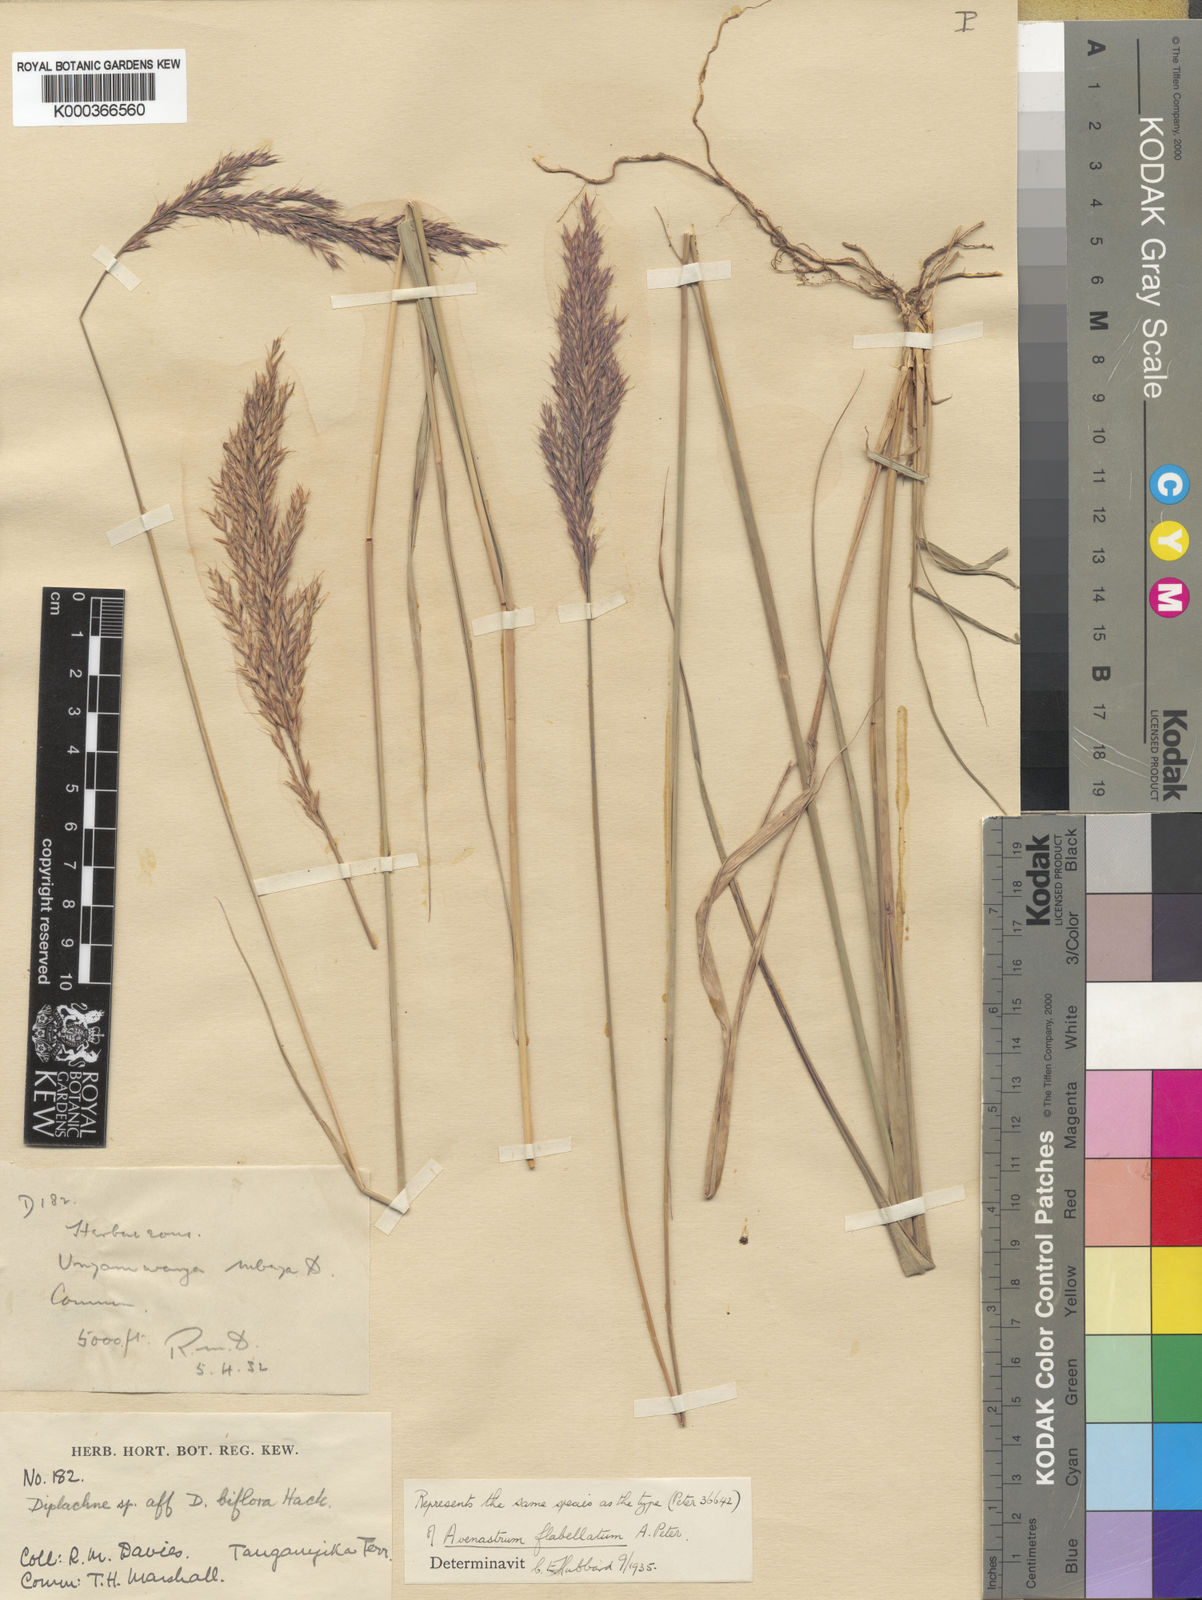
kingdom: Plantae
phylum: Tracheophyta
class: Liliopsida
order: Poales
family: Poaceae
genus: Bewsia
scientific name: Bewsia biflora
